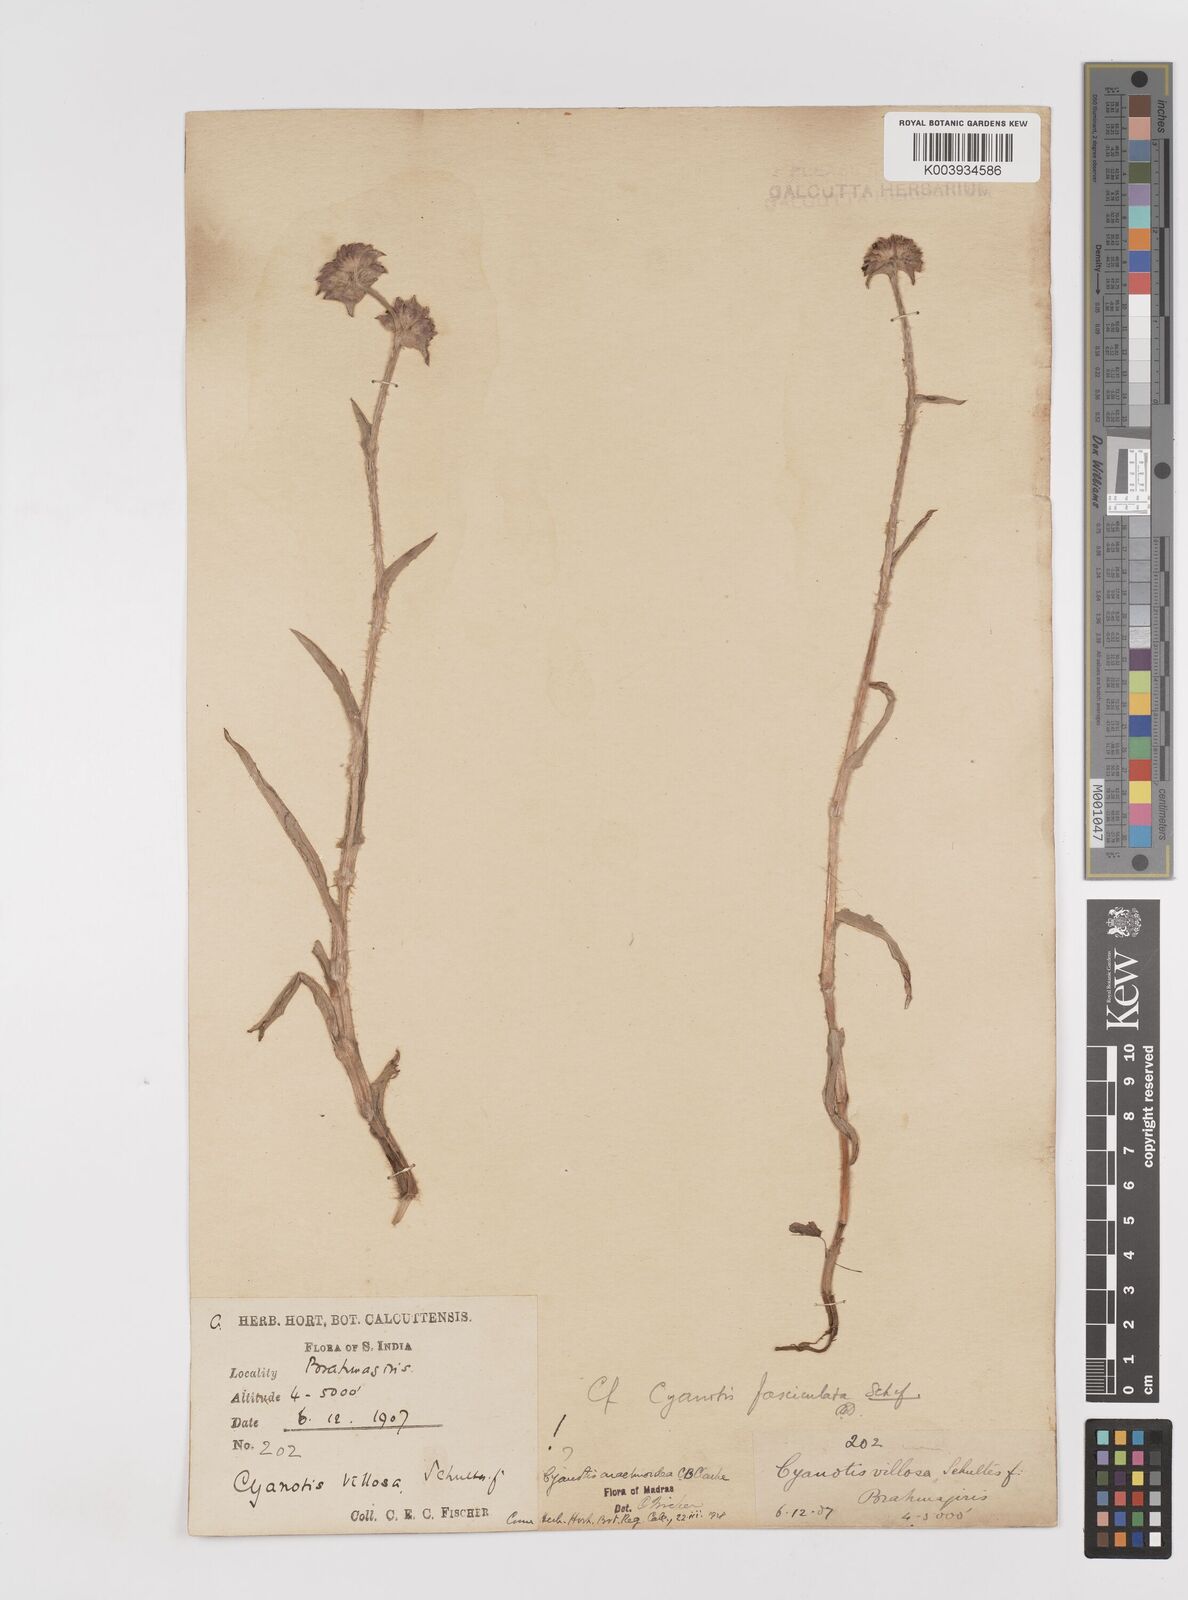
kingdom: Plantae
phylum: Tracheophyta
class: Liliopsida
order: Commelinales
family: Commelinaceae
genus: Cyanotis
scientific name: Cyanotis arachnoidea
